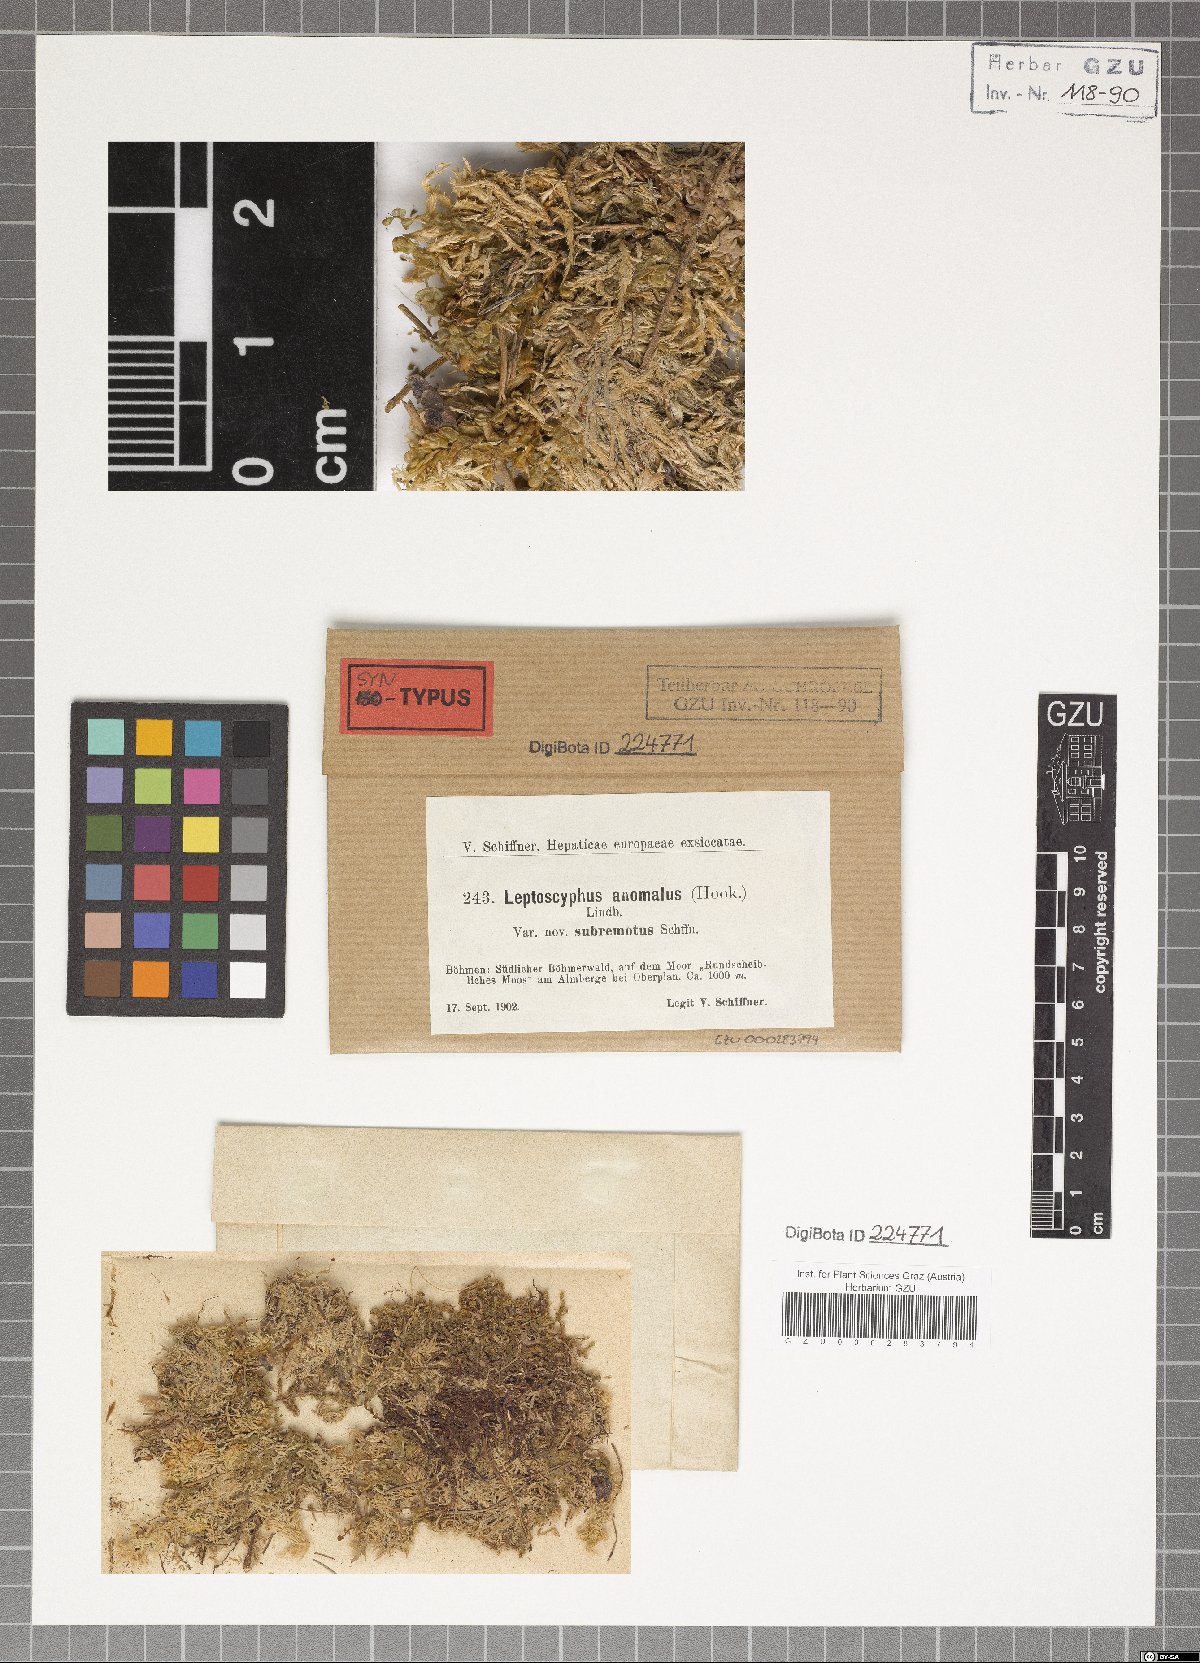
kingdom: Plantae
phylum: Marchantiophyta
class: Jungermanniopsida
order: Jungermanniales
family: Myliaceae
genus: Mylia
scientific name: Mylia anomala
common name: Anomalous flapwort
